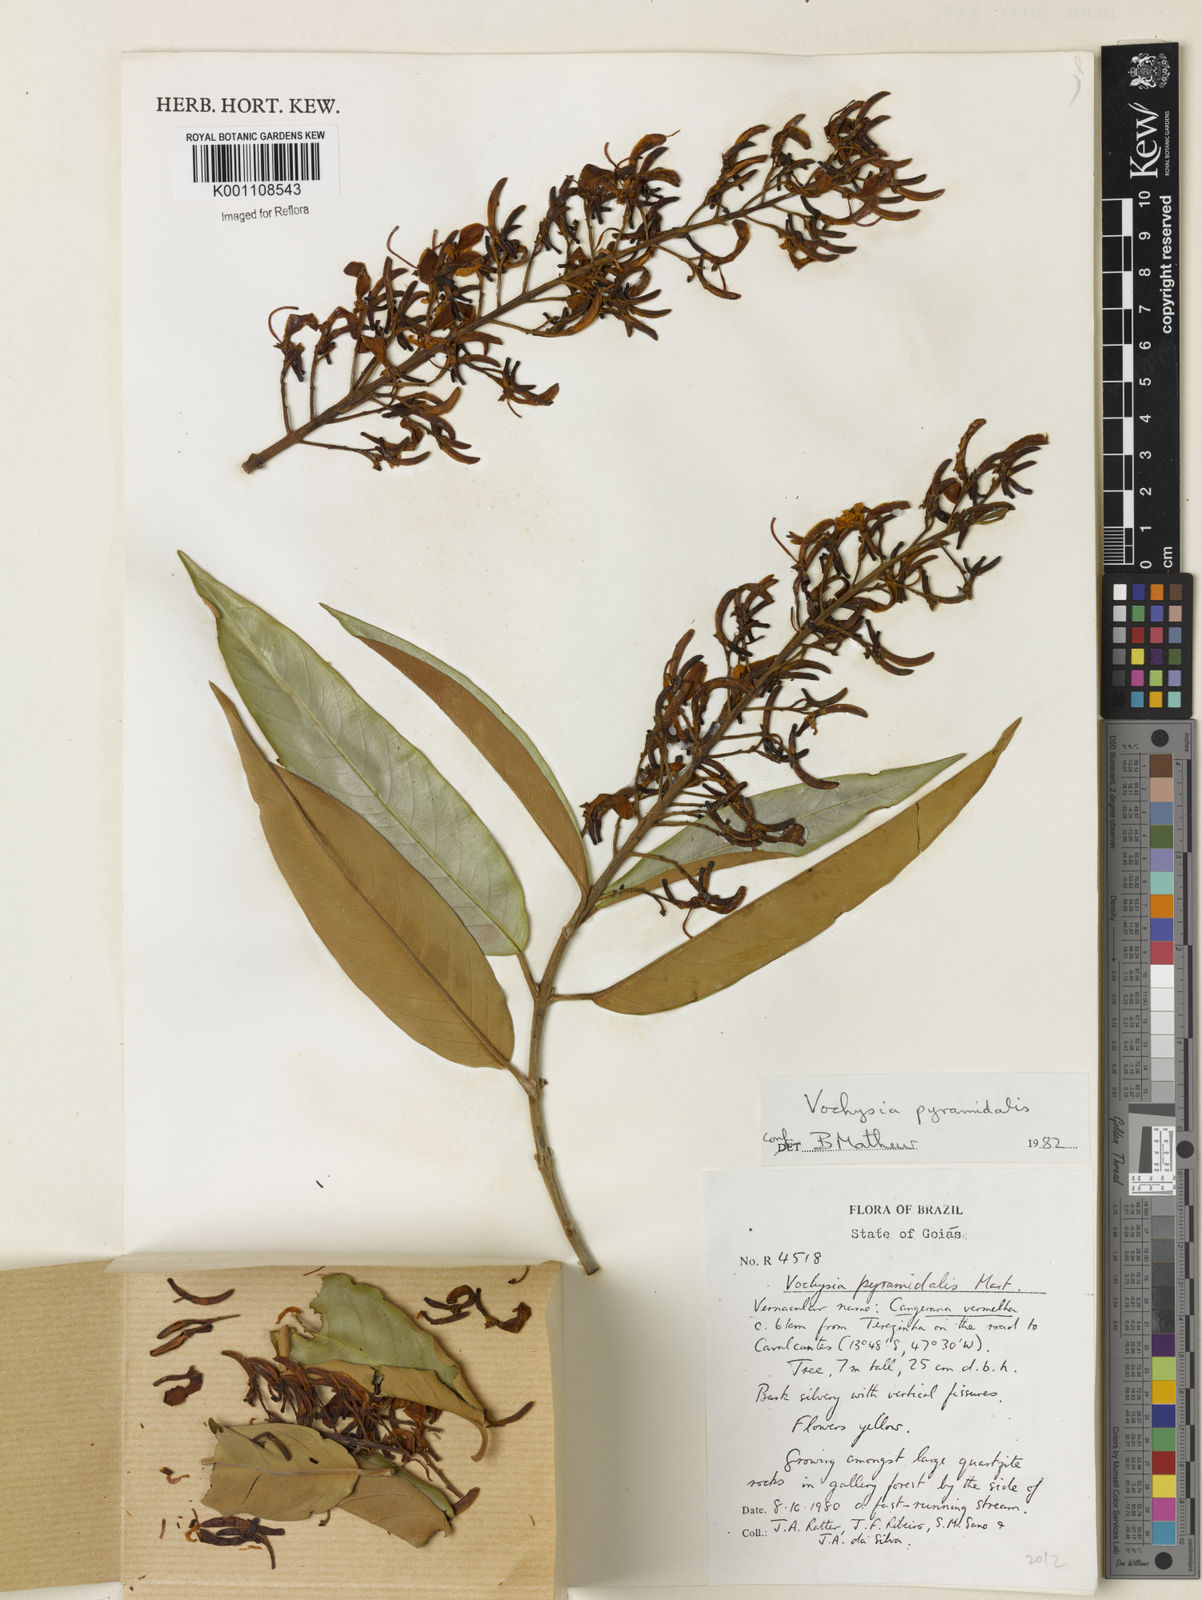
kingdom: Plantae
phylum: Tracheophyta
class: Magnoliopsida
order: Myrtales
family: Vochysiaceae
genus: Vochysia
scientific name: Vochysia pyramidalis
